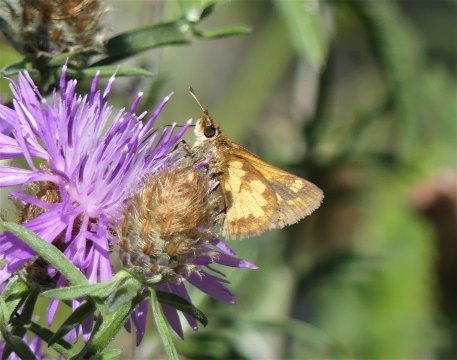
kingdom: Animalia
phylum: Arthropoda
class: Insecta
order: Lepidoptera
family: Hesperiidae
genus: Polites
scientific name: Polites coras
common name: Peck's Skipper
